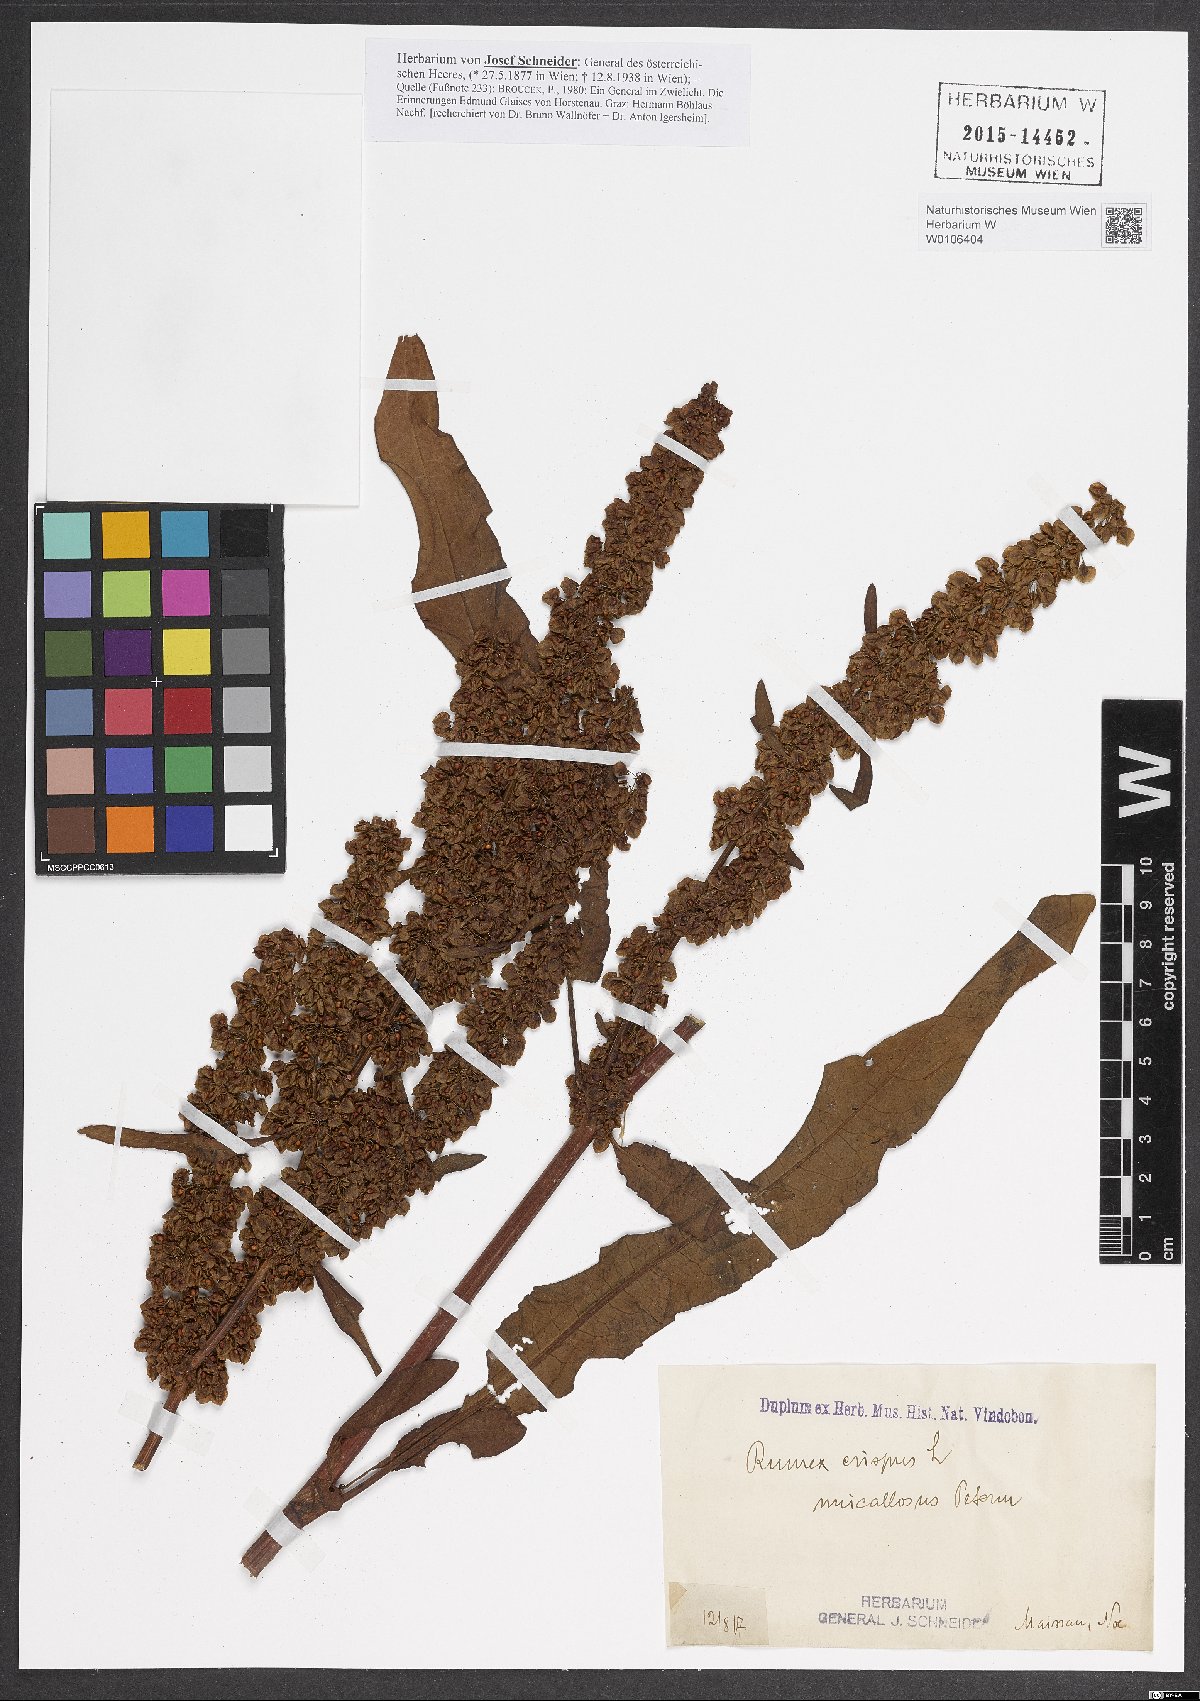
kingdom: Plantae
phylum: Tracheophyta
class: Magnoliopsida
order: Caryophyllales
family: Polygonaceae
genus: Rumex
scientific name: Rumex crispus
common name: Curled dock
